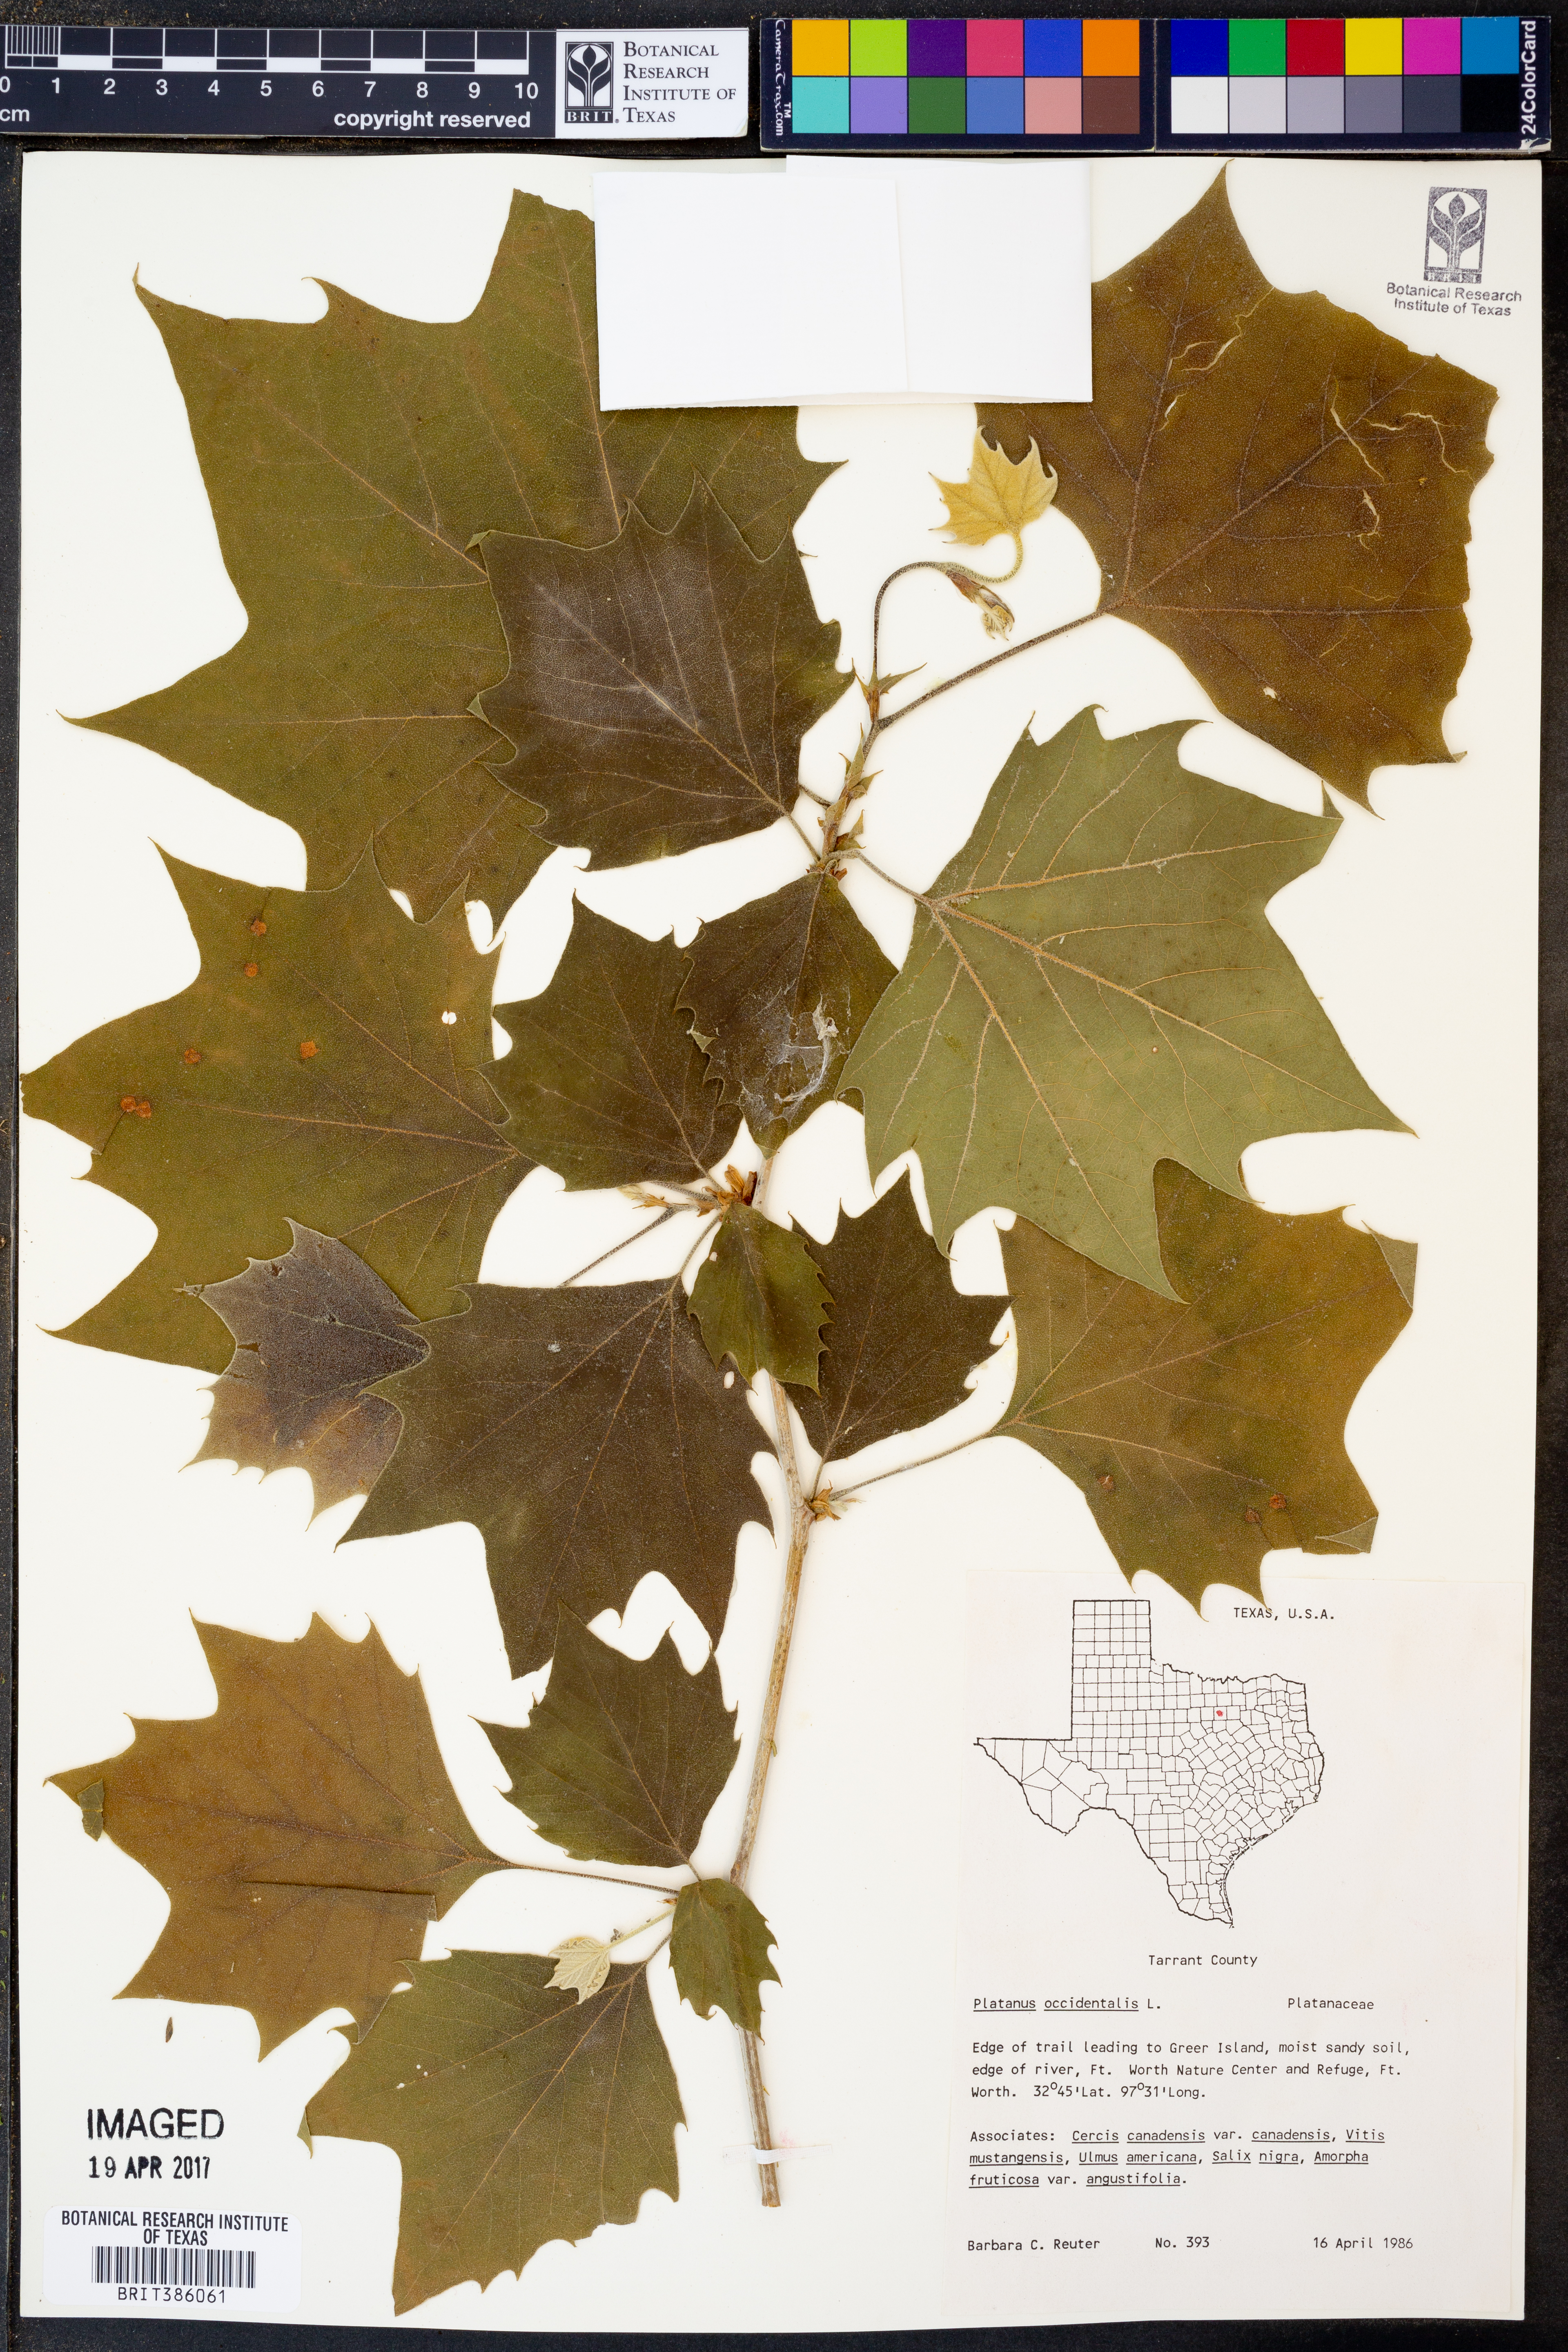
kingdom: Plantae
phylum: Tracheophyta
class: Magnoliopsida
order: Proteales
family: Platanaceae
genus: Platanus
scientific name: Platanus occidentalis
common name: American sycamore
